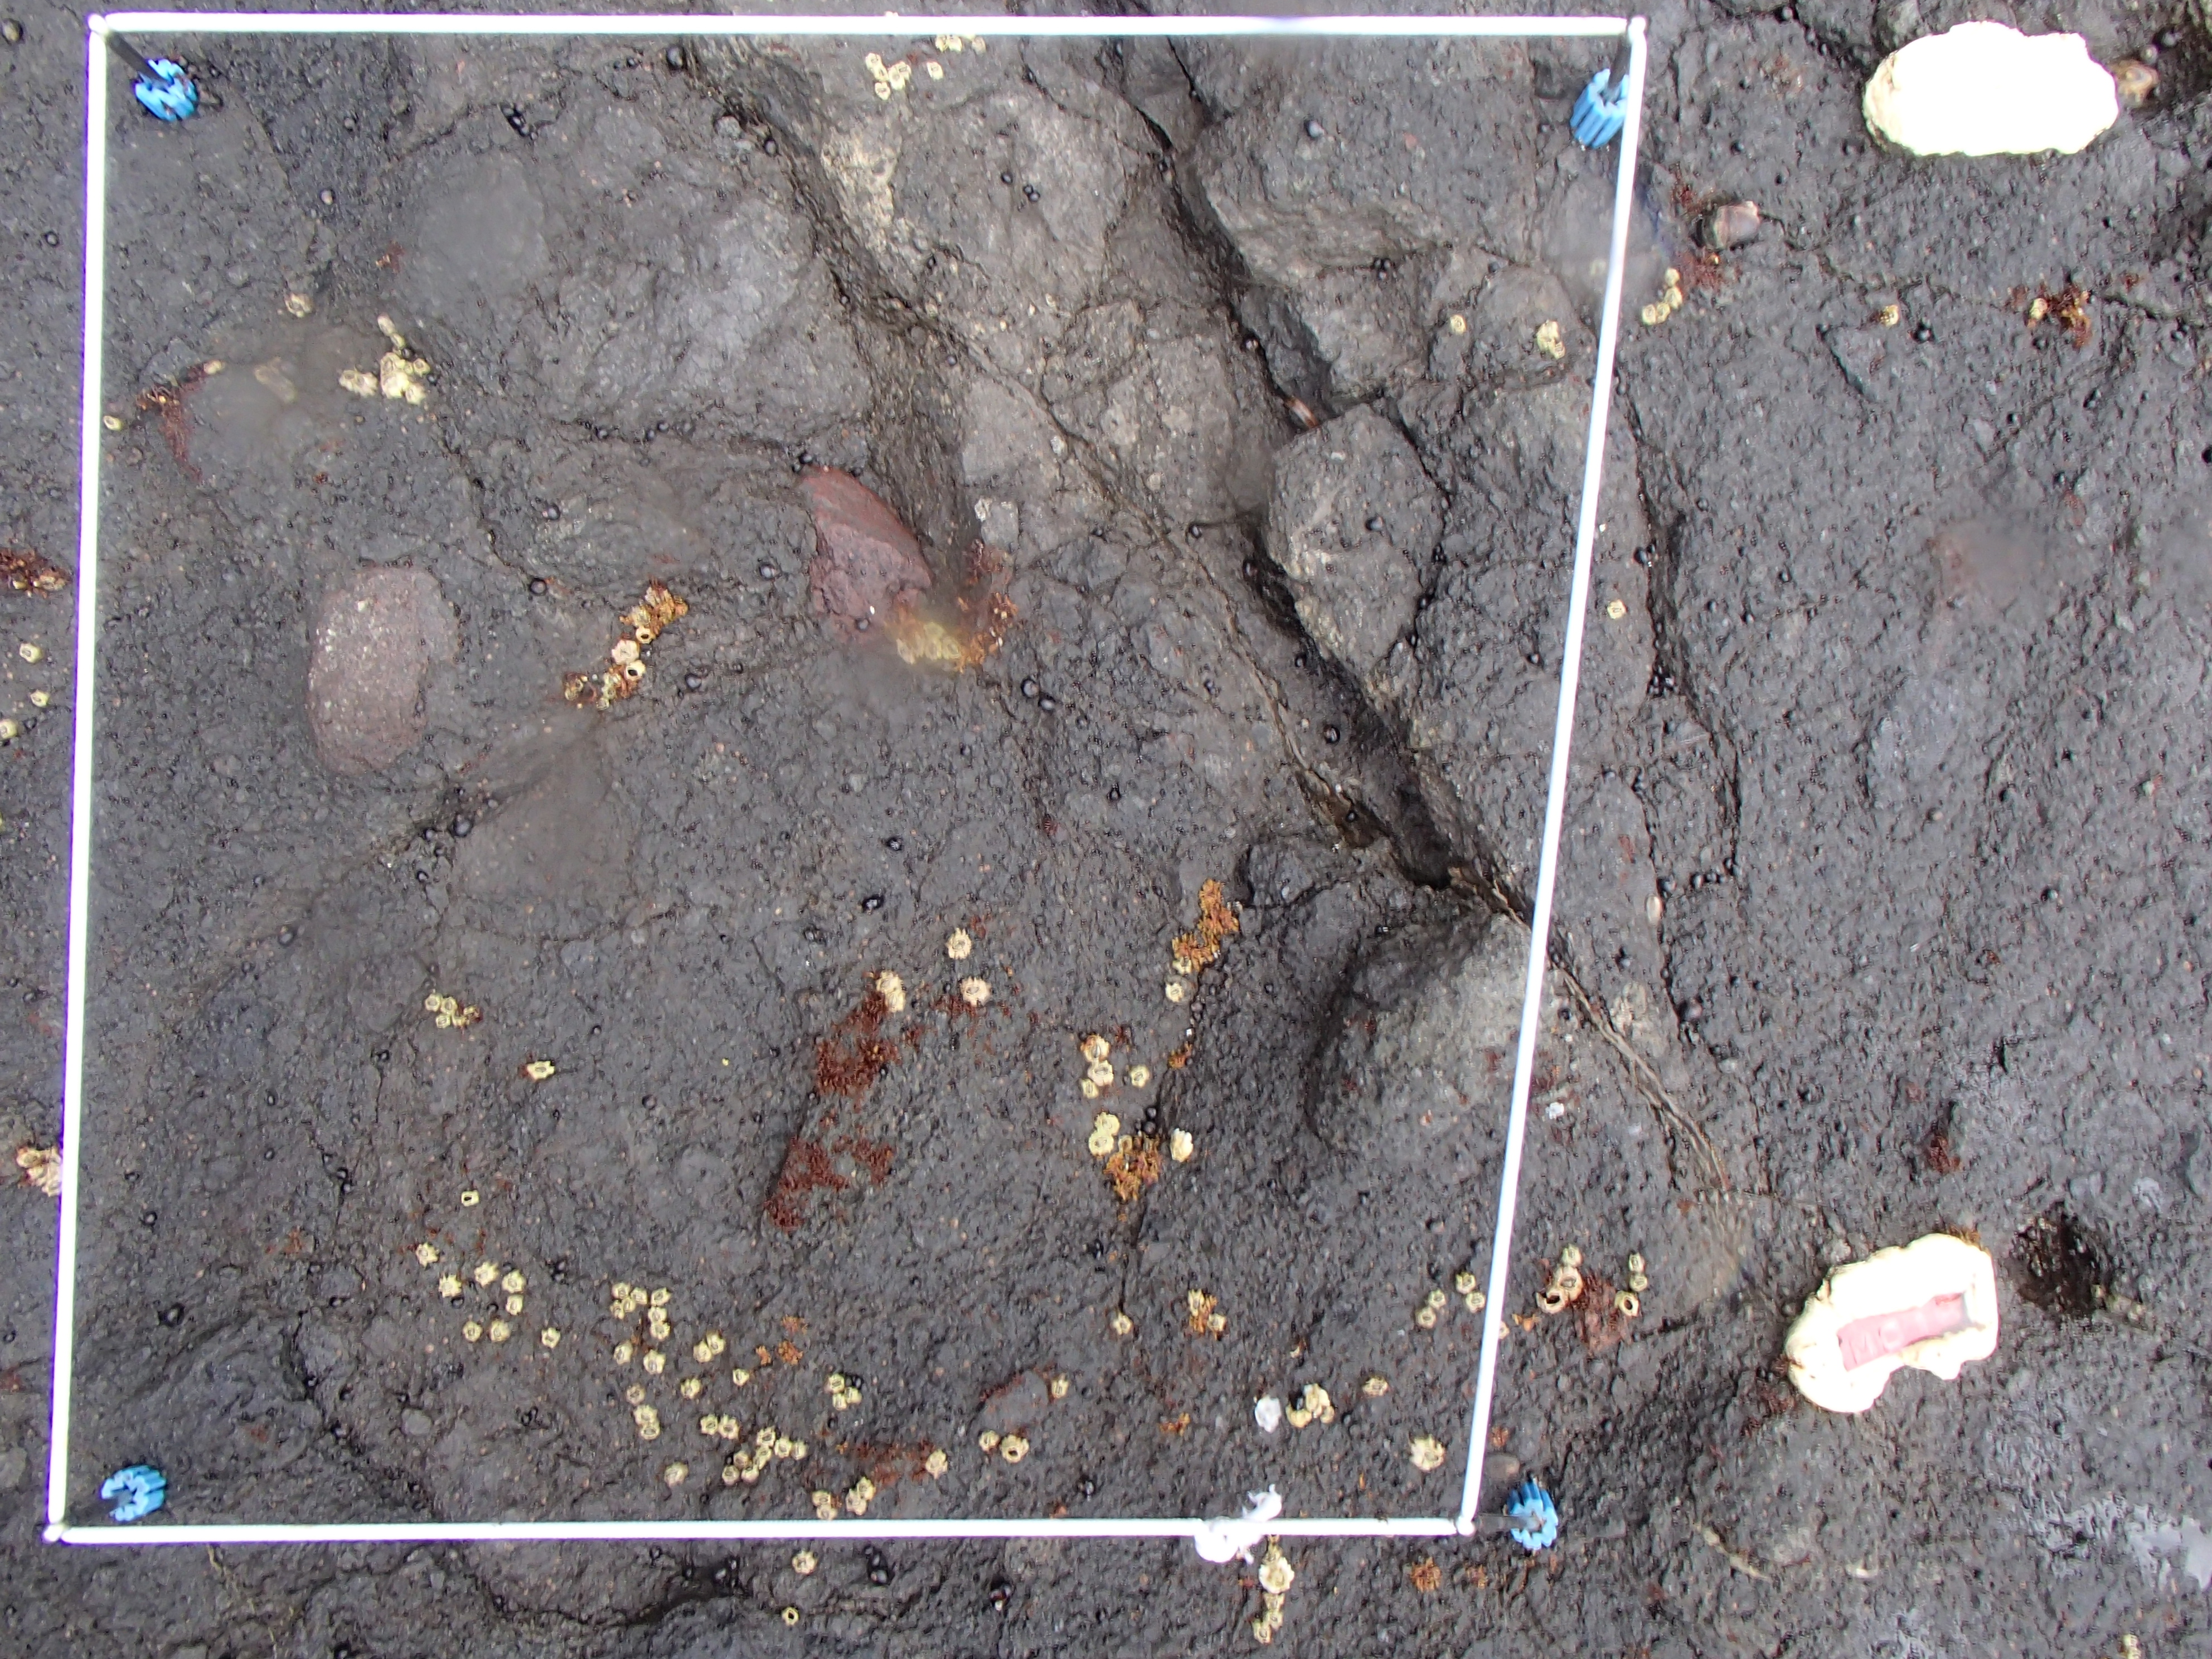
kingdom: Animalia
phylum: Arthropoda
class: Maxillopoda
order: Sessilia
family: Chthamalidae
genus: Chthamalus
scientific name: Chthamalus dalli
